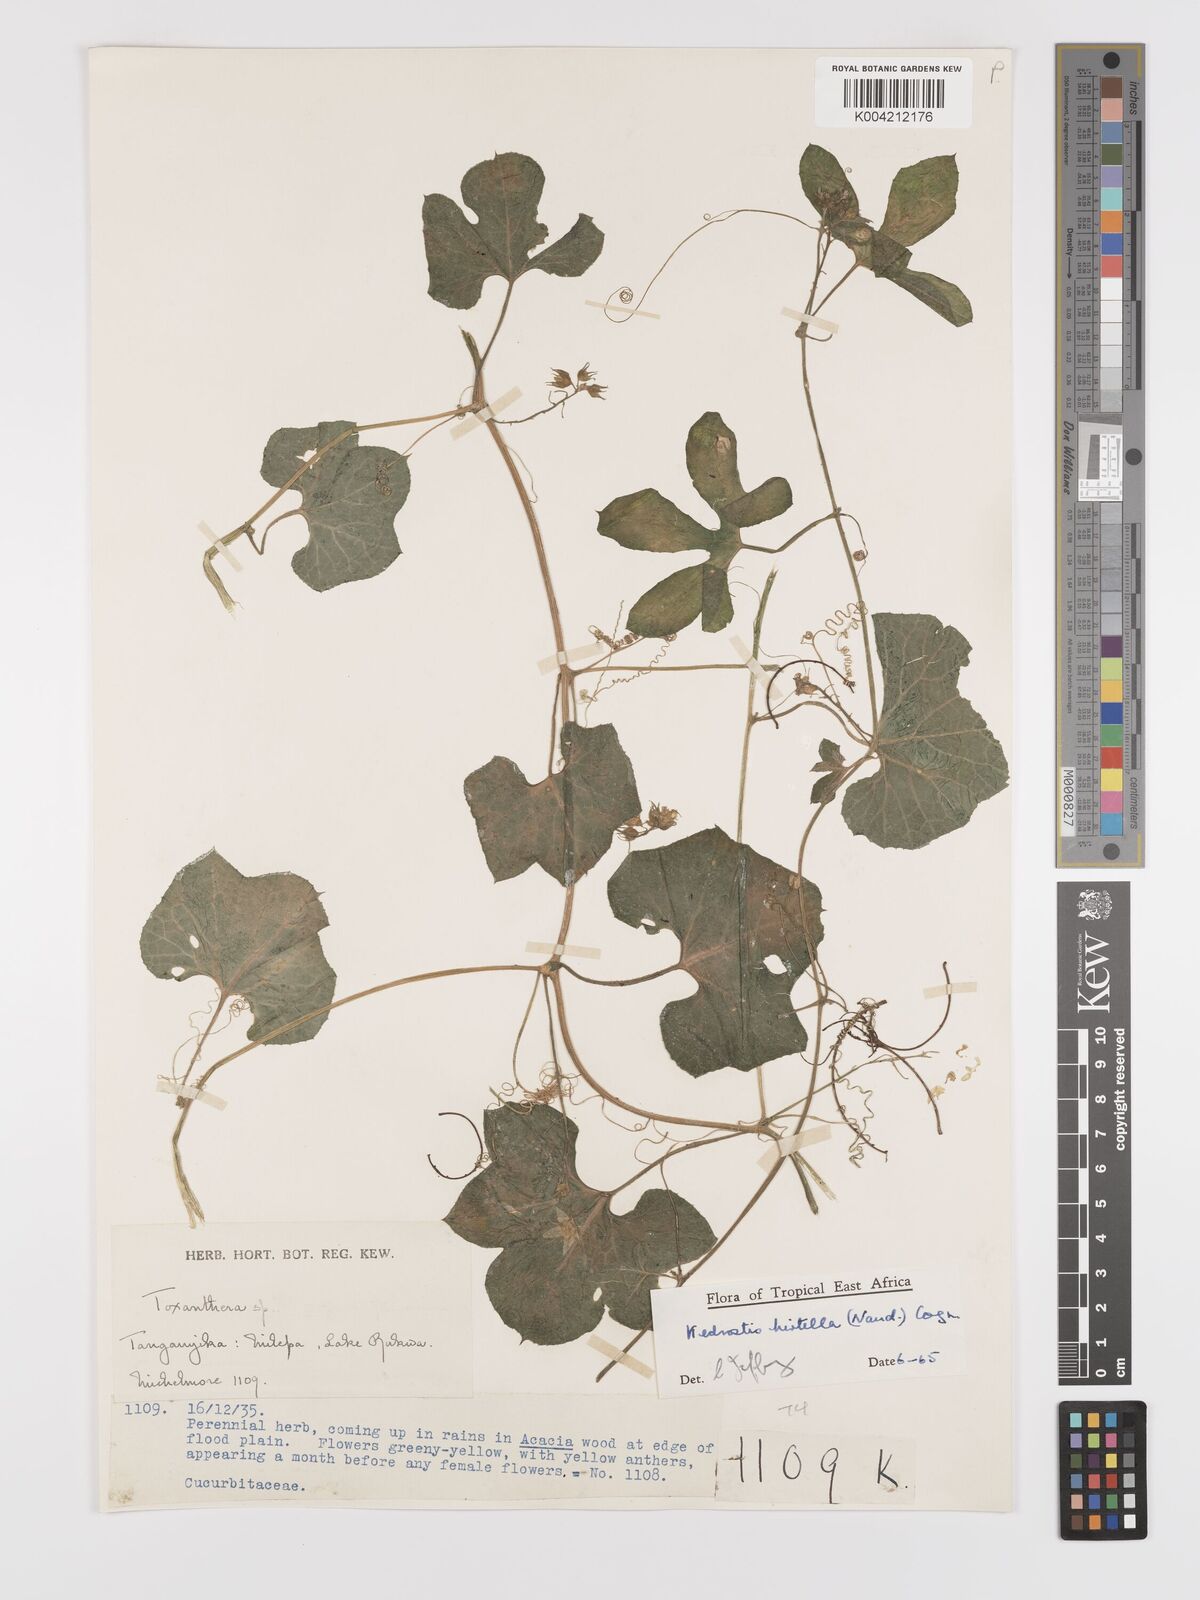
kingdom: Plantae
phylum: Tracheophyta
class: Magnoliopsida
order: Cucurbitales
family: Cucurbitaceae
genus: Kedrostis
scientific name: Kedrostis leloja
